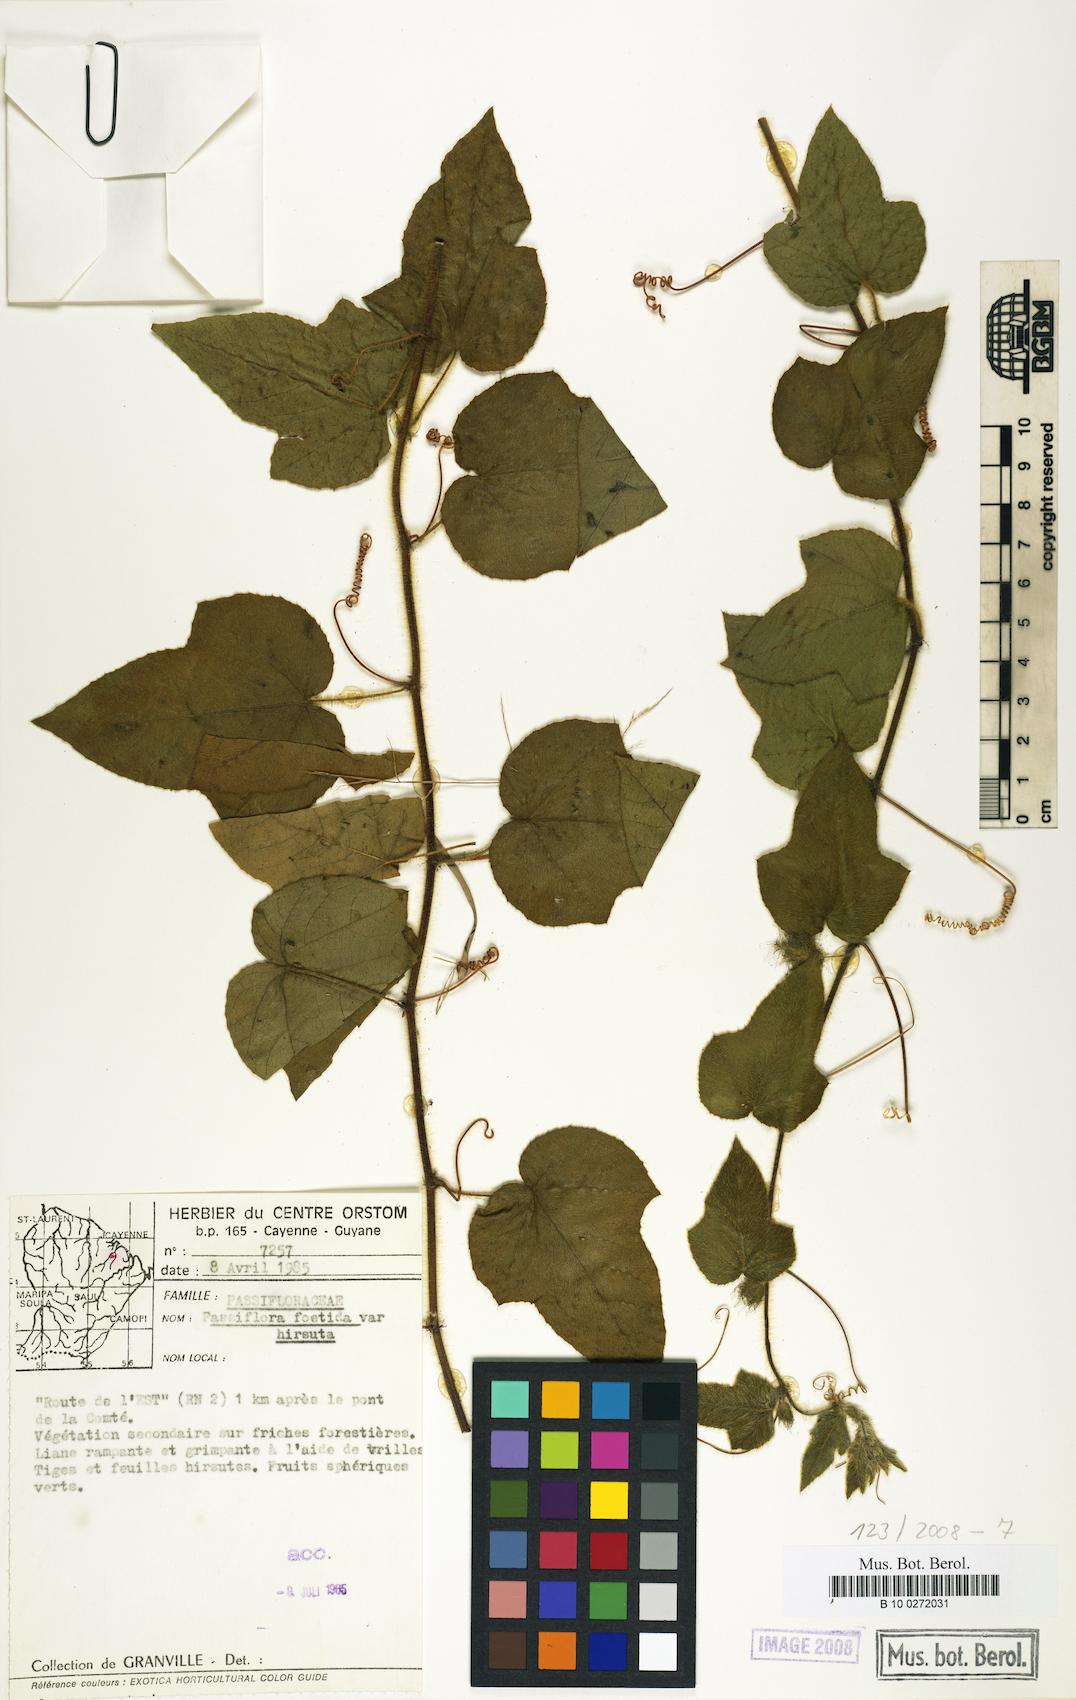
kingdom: Plantae
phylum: Tracheophyta
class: Magnoliopsida
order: Malpighiales
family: Passifloraceae
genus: Passiflora
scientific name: Passiflora foetida
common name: Fetid passionflower
